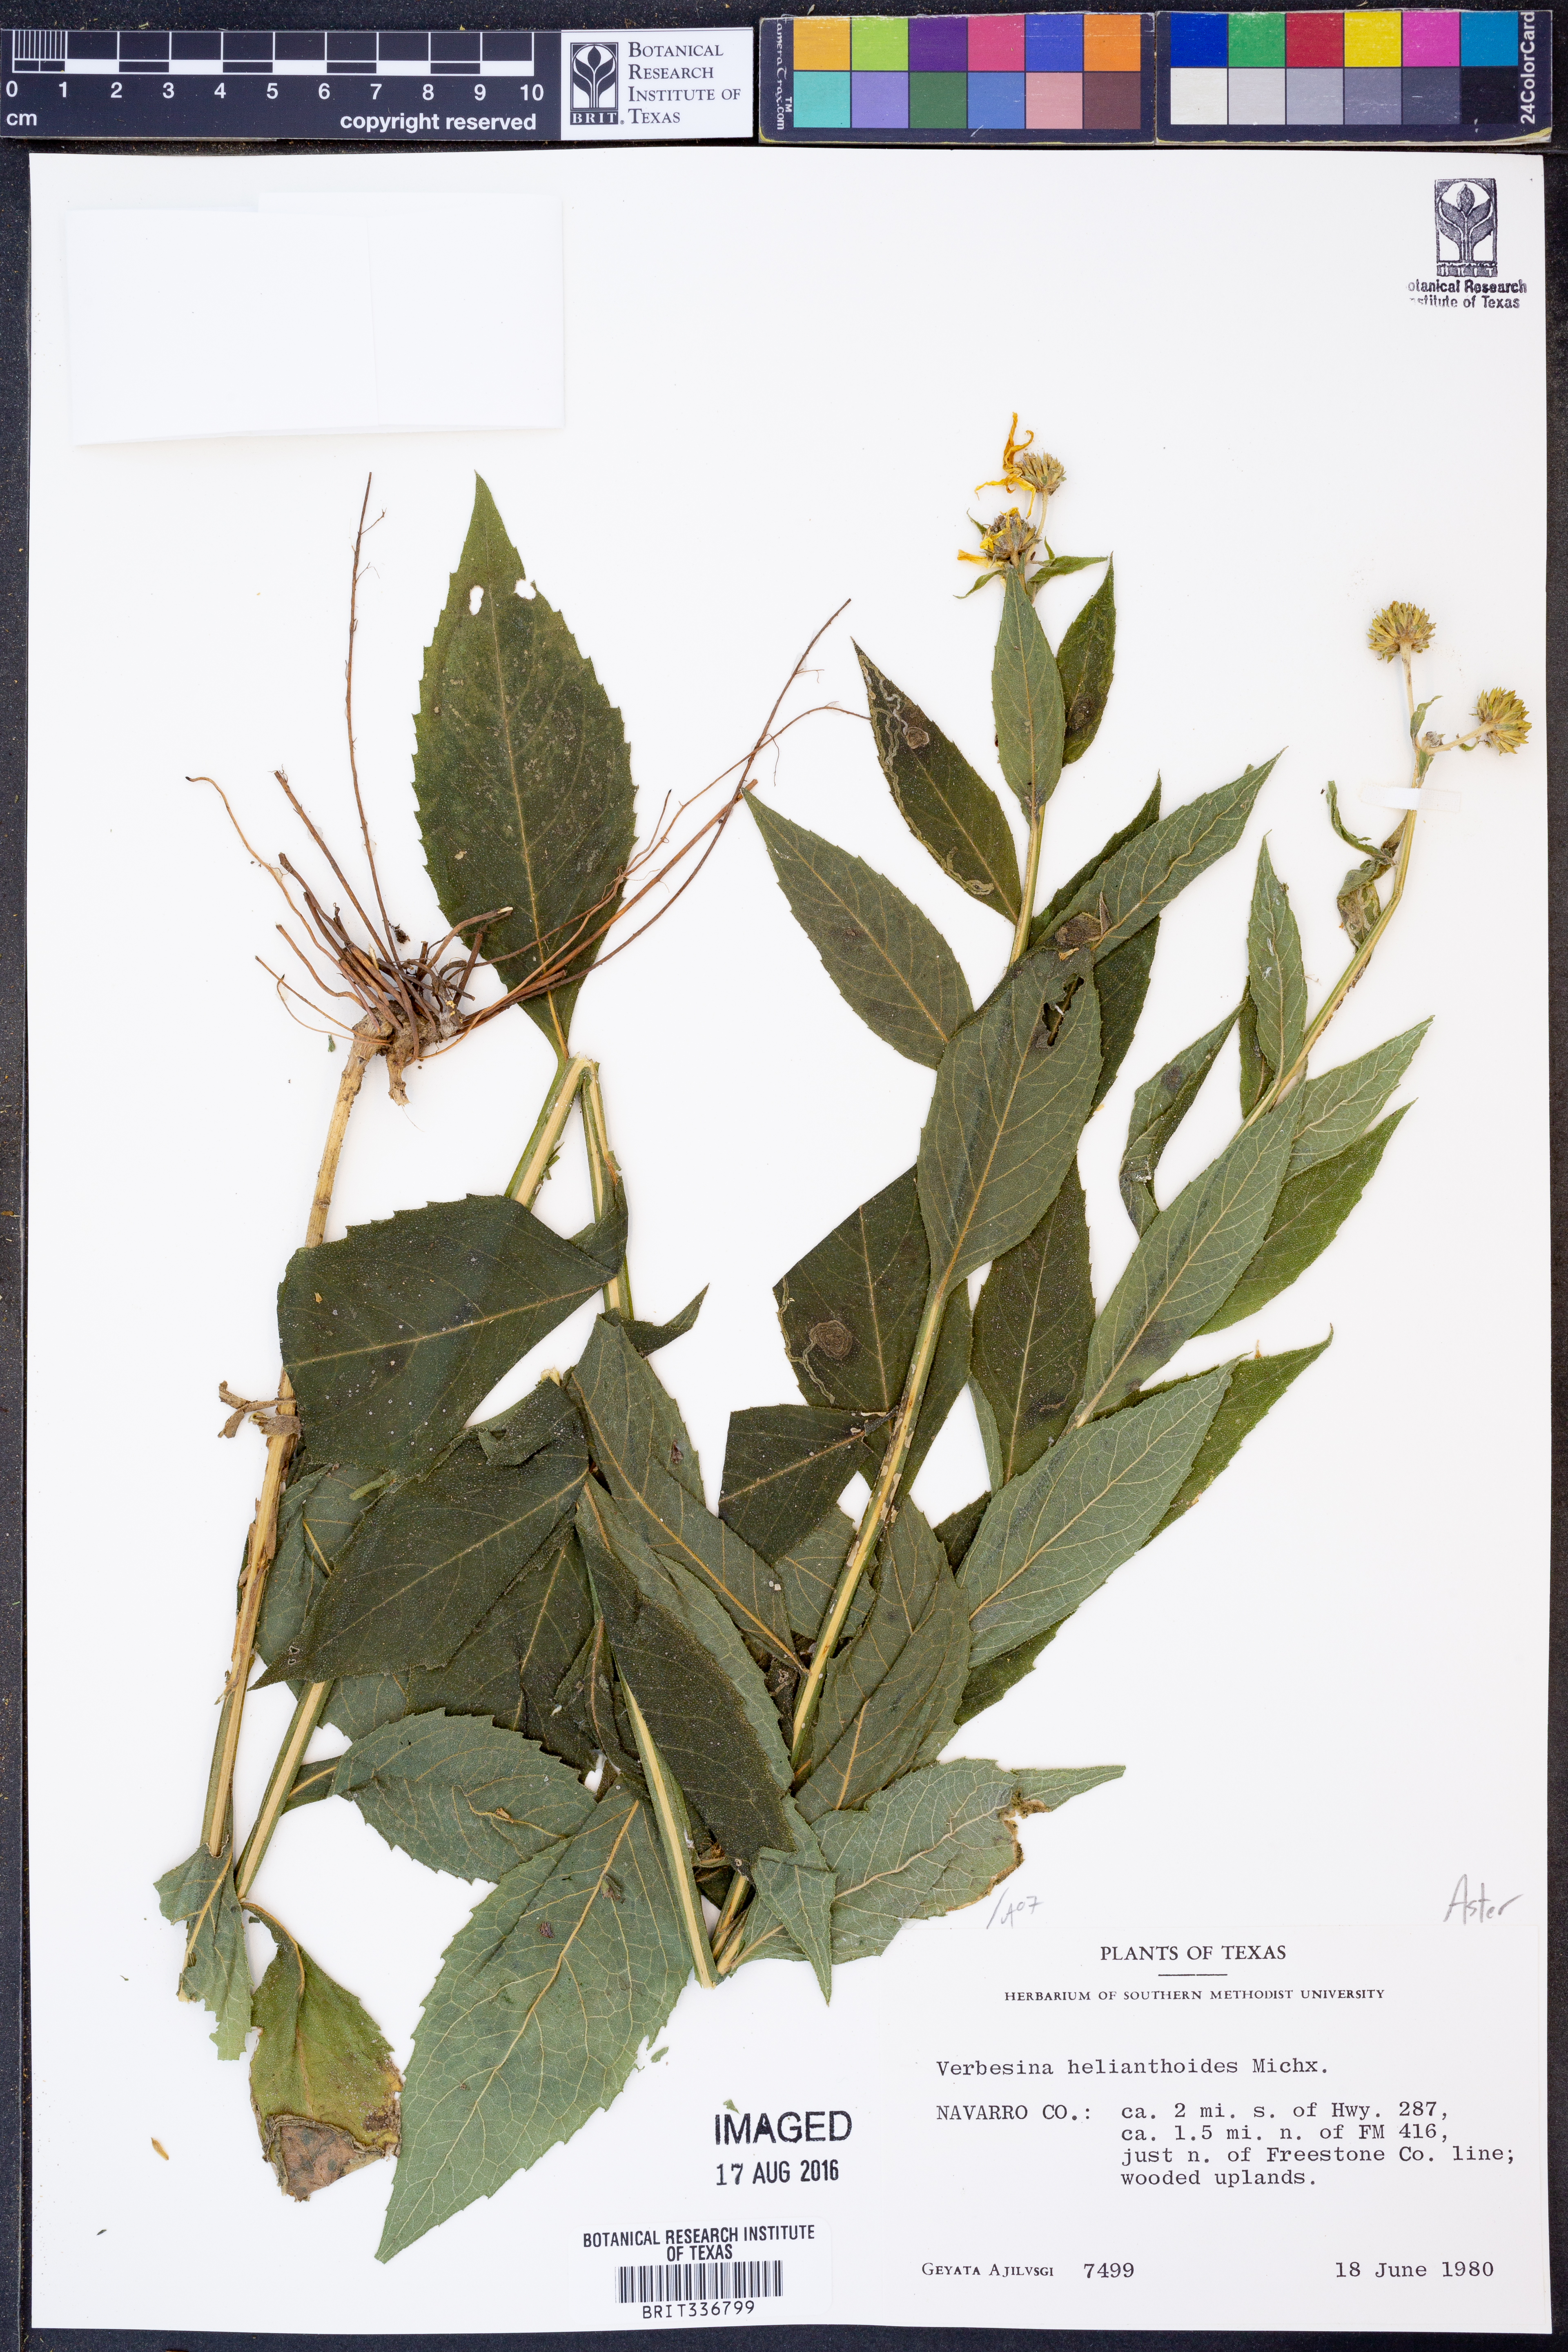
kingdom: Plantae
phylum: Tracheophyta
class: Magnoliopsida
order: Asterales
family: Asteraceae
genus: Verbesina
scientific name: Verbesina helianthoides
